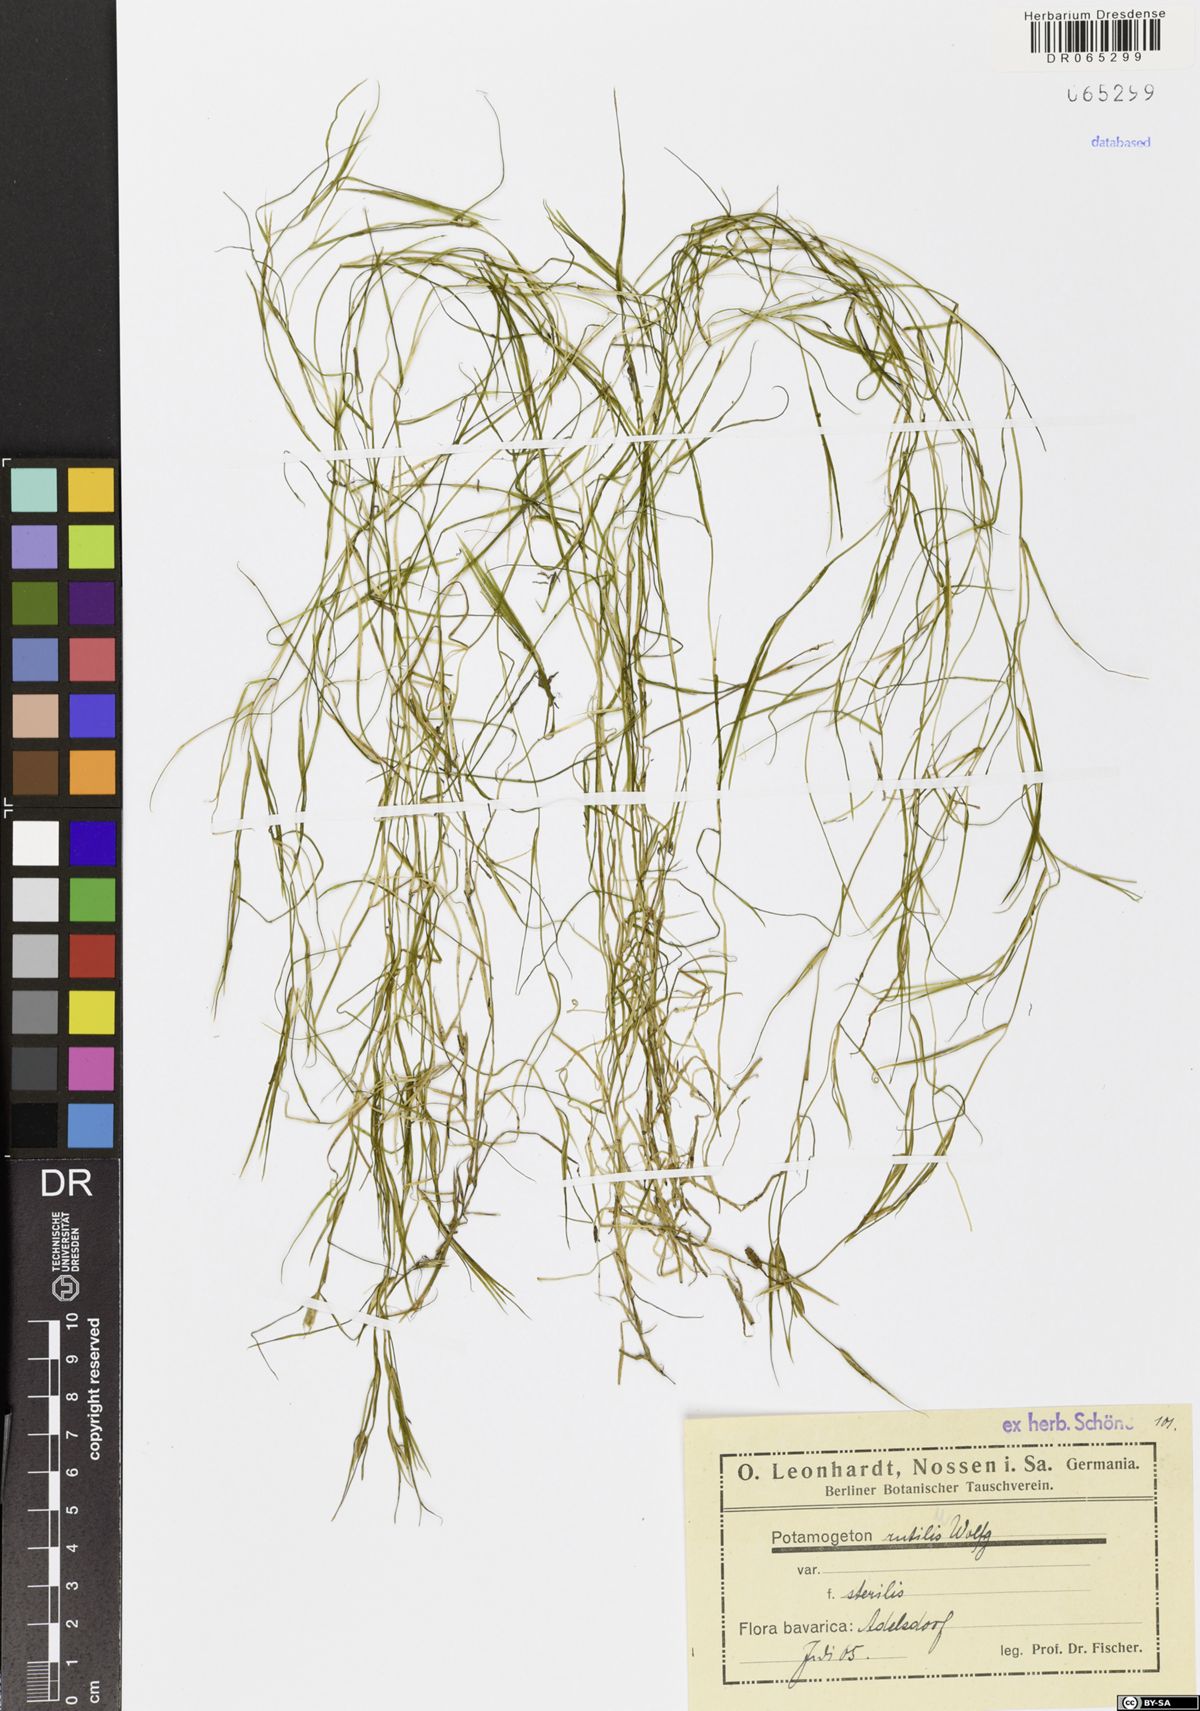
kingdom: Plantae
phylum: Tracheophyta
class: Liliopsida
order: Alismatales
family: Potamogetonaceae
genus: Potamogeton
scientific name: Potamogeton rutilus
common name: Shetland pondweed
